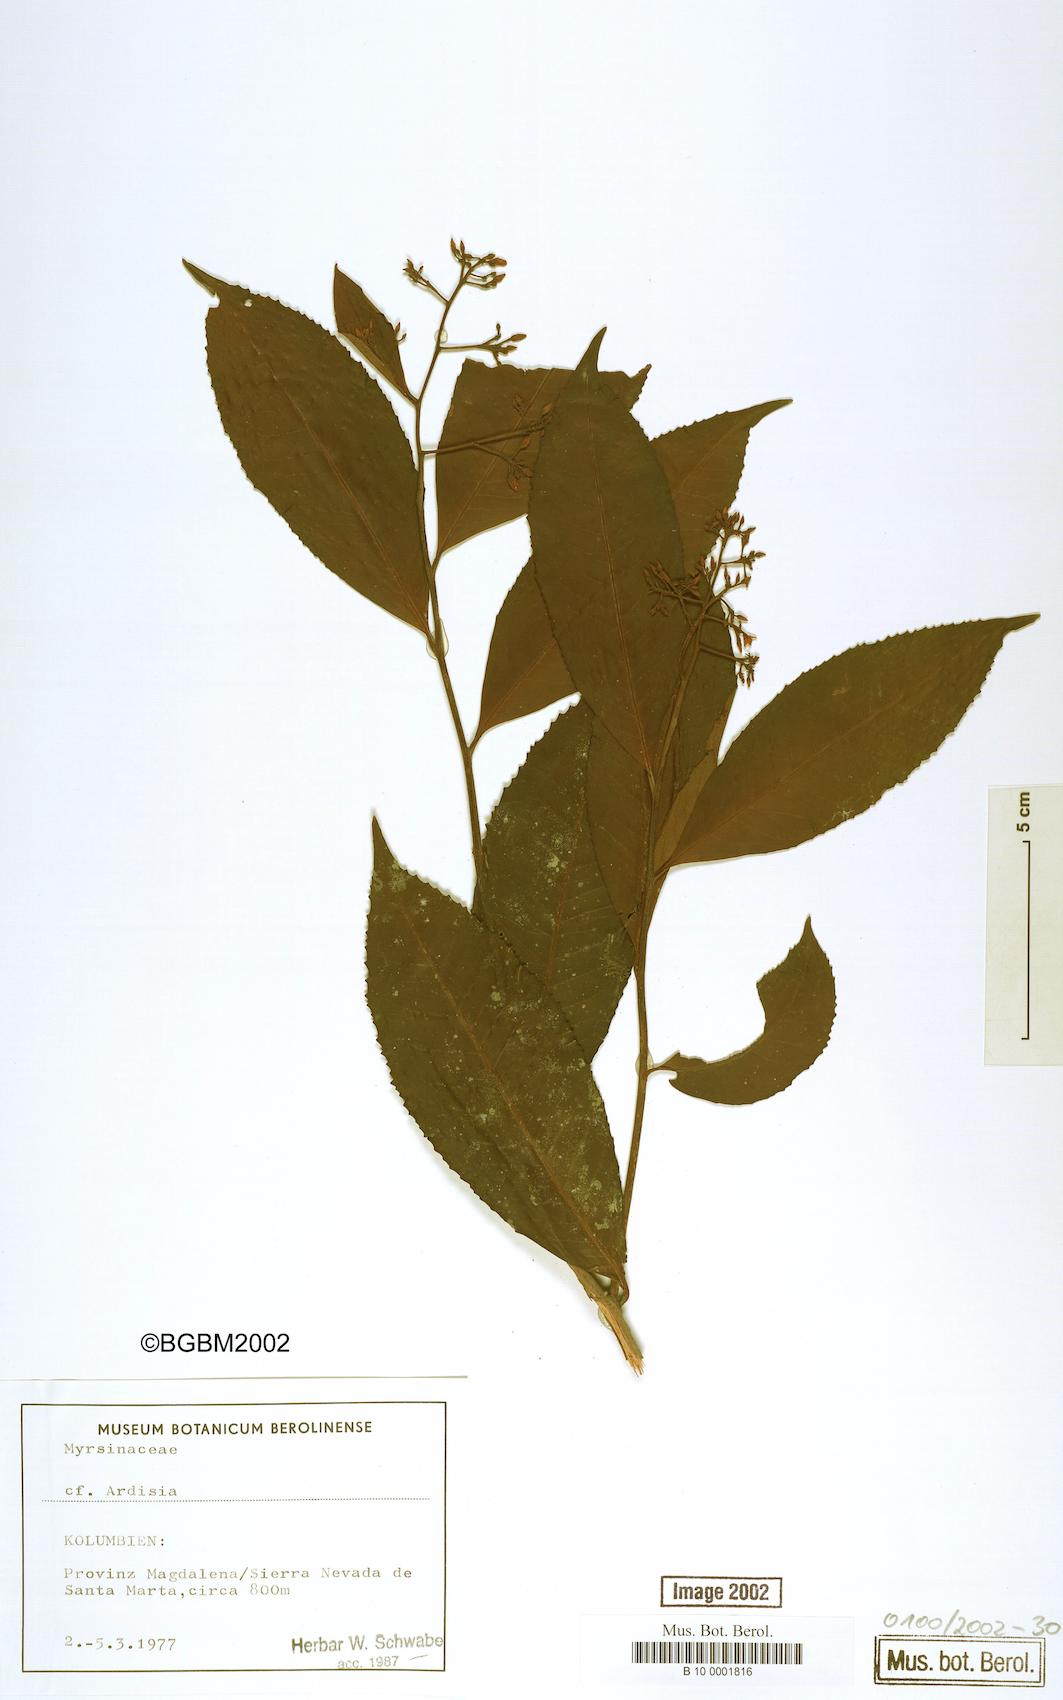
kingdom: Plantae
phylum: Tracheophyta
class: Magnoliopsida
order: Ericales
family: Primulaceae
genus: Ardisia
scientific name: Ardisia
